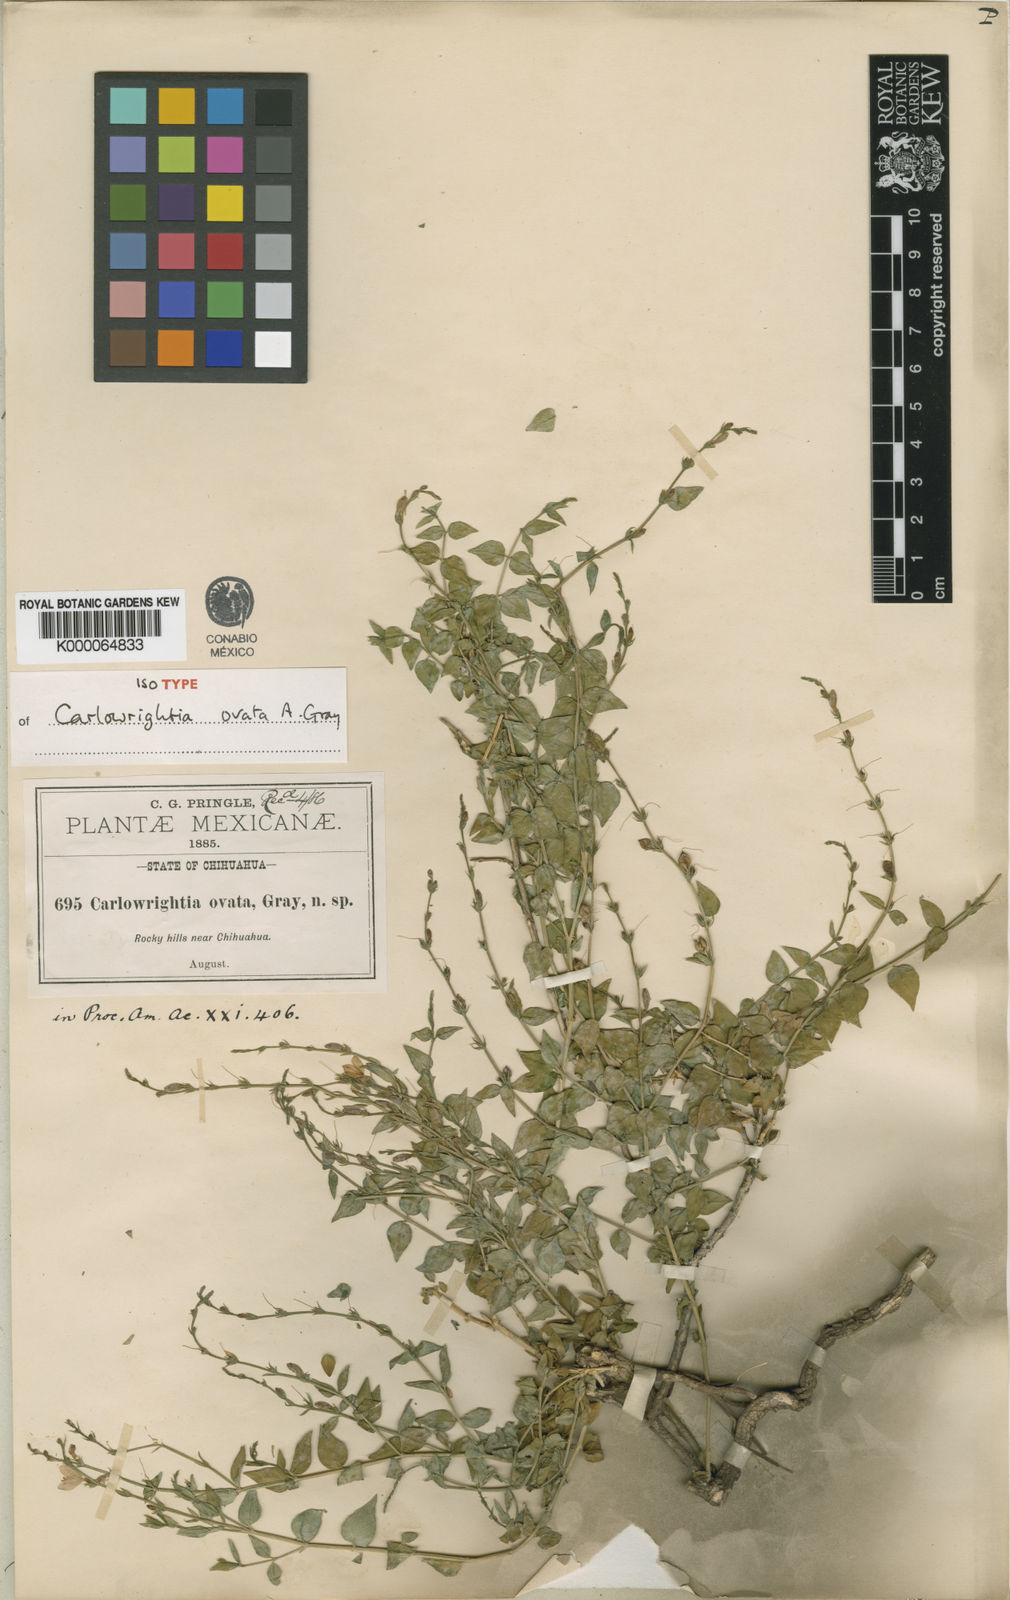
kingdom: Plantae
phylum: Tracheophyta
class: Magnoliopsida
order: Lamiales
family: Acanthaceae
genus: Carlowrightia
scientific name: Carlowrightia ovata
